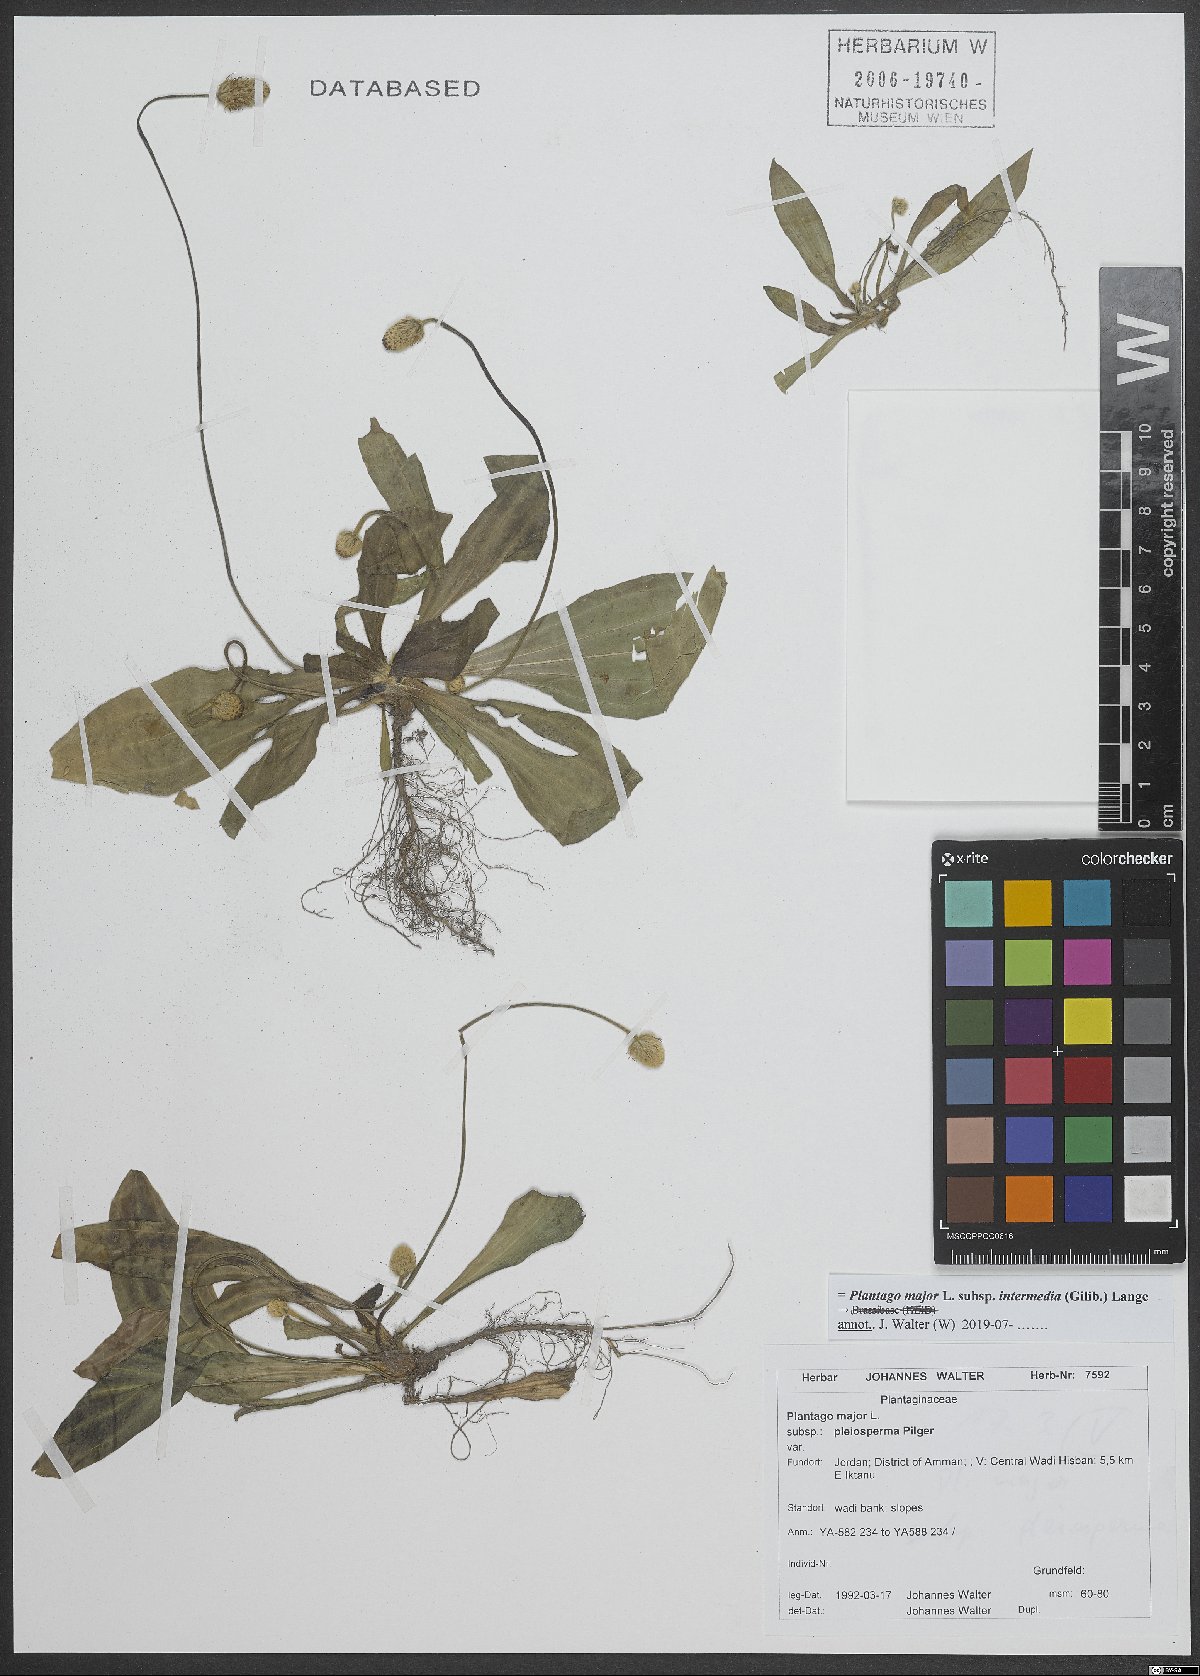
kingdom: Plantae
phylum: Tracheophyta
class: Magnoliopsida
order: Lamiales
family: Plantaginaceae
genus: Plantago
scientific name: Plantago uliginosa
